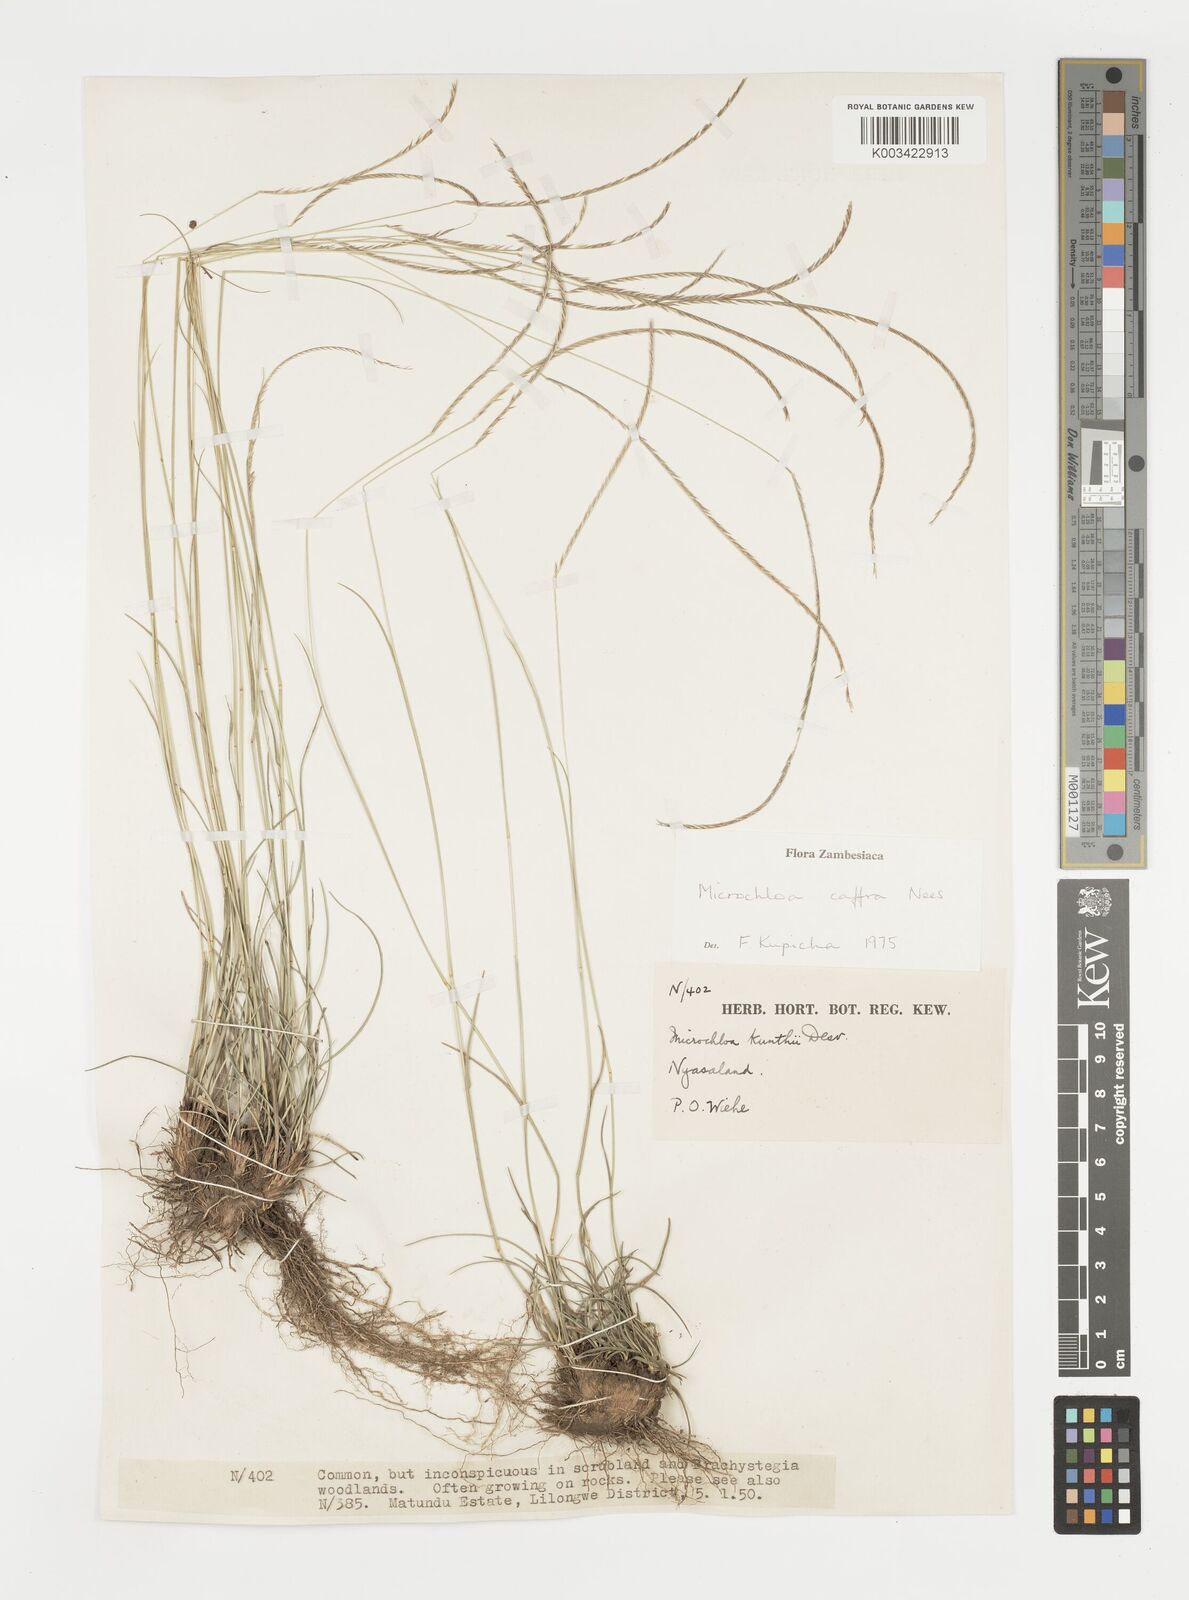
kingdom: Plantae
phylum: Tracheophyta
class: Liliopsida
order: Poales
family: Poaceae
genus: Microchloa
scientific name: Microchloa caffra
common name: Pincushion grass
